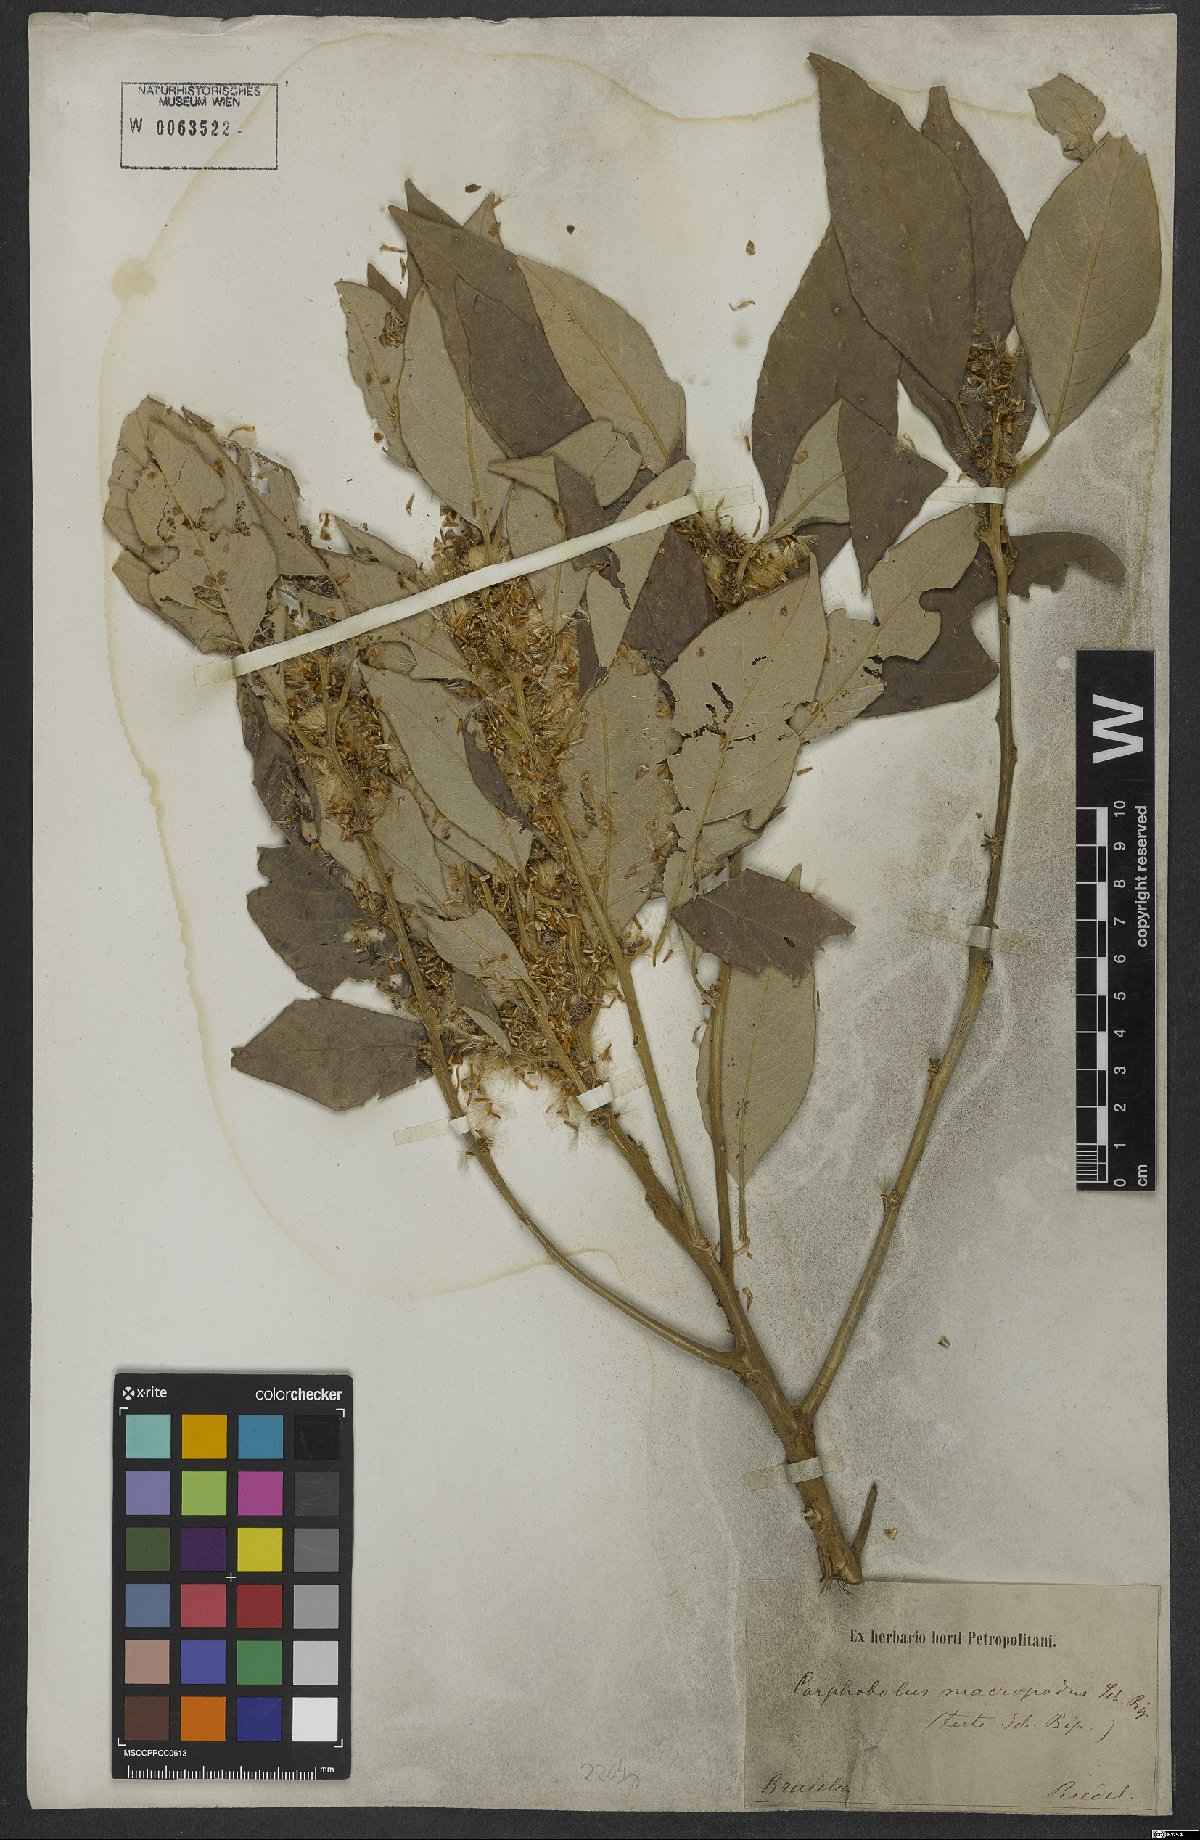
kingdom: Plantae
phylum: Tracheophyta
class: Magnoliopsida
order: Asterales
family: Asteraceae
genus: Piptocarpha
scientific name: Piptocarpha macropoda
